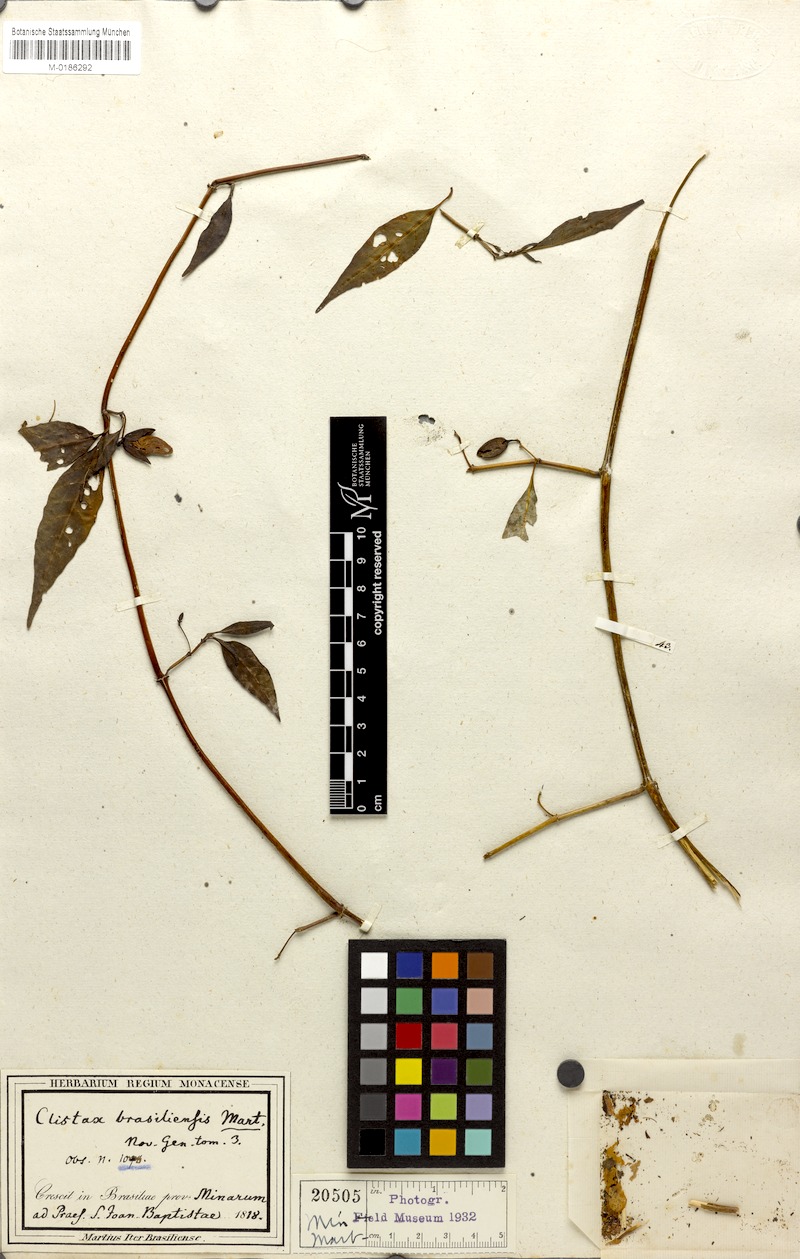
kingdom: Plantae
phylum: Tracheophyta
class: Magnoliopsida
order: Lamiales
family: Acanthaceae
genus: Clistax
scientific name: Clistax brasiliensis
